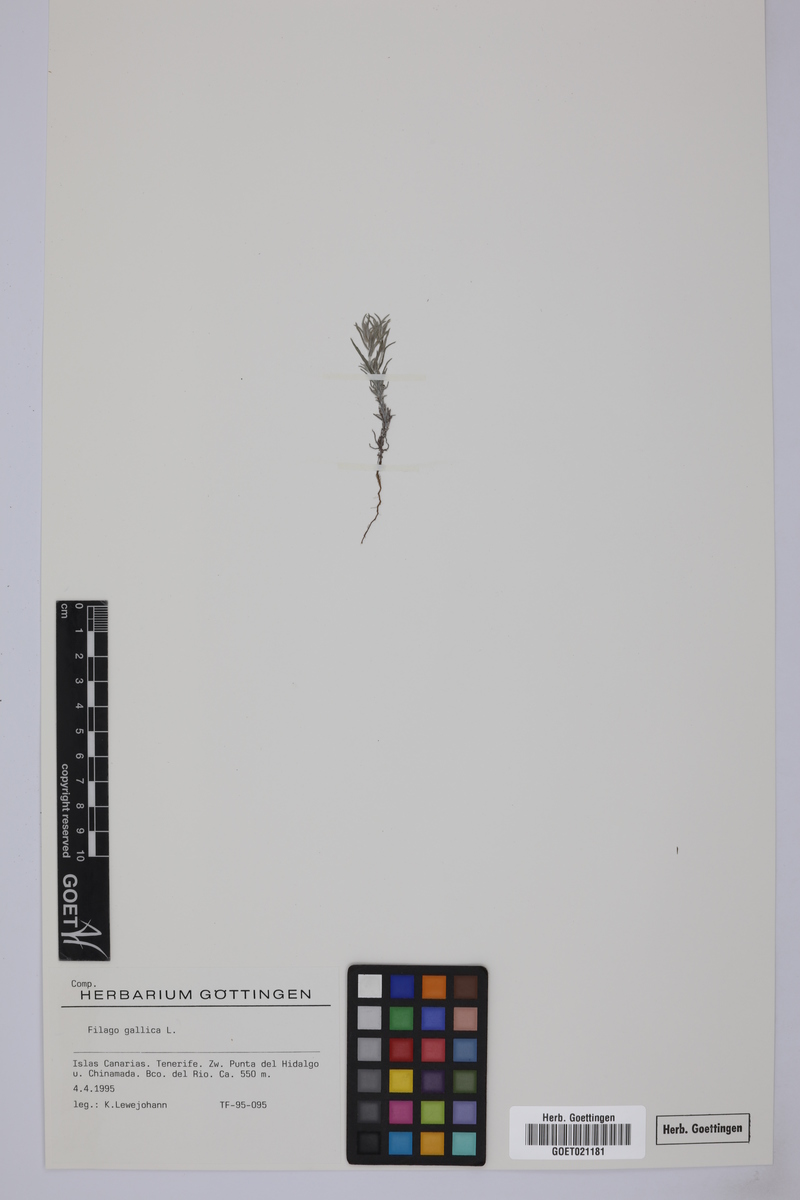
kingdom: Plantae
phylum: Tracheophyta
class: Magnoliopsida
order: Asterales
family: Asteraceae
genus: Logfia
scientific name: Logfia gallica
